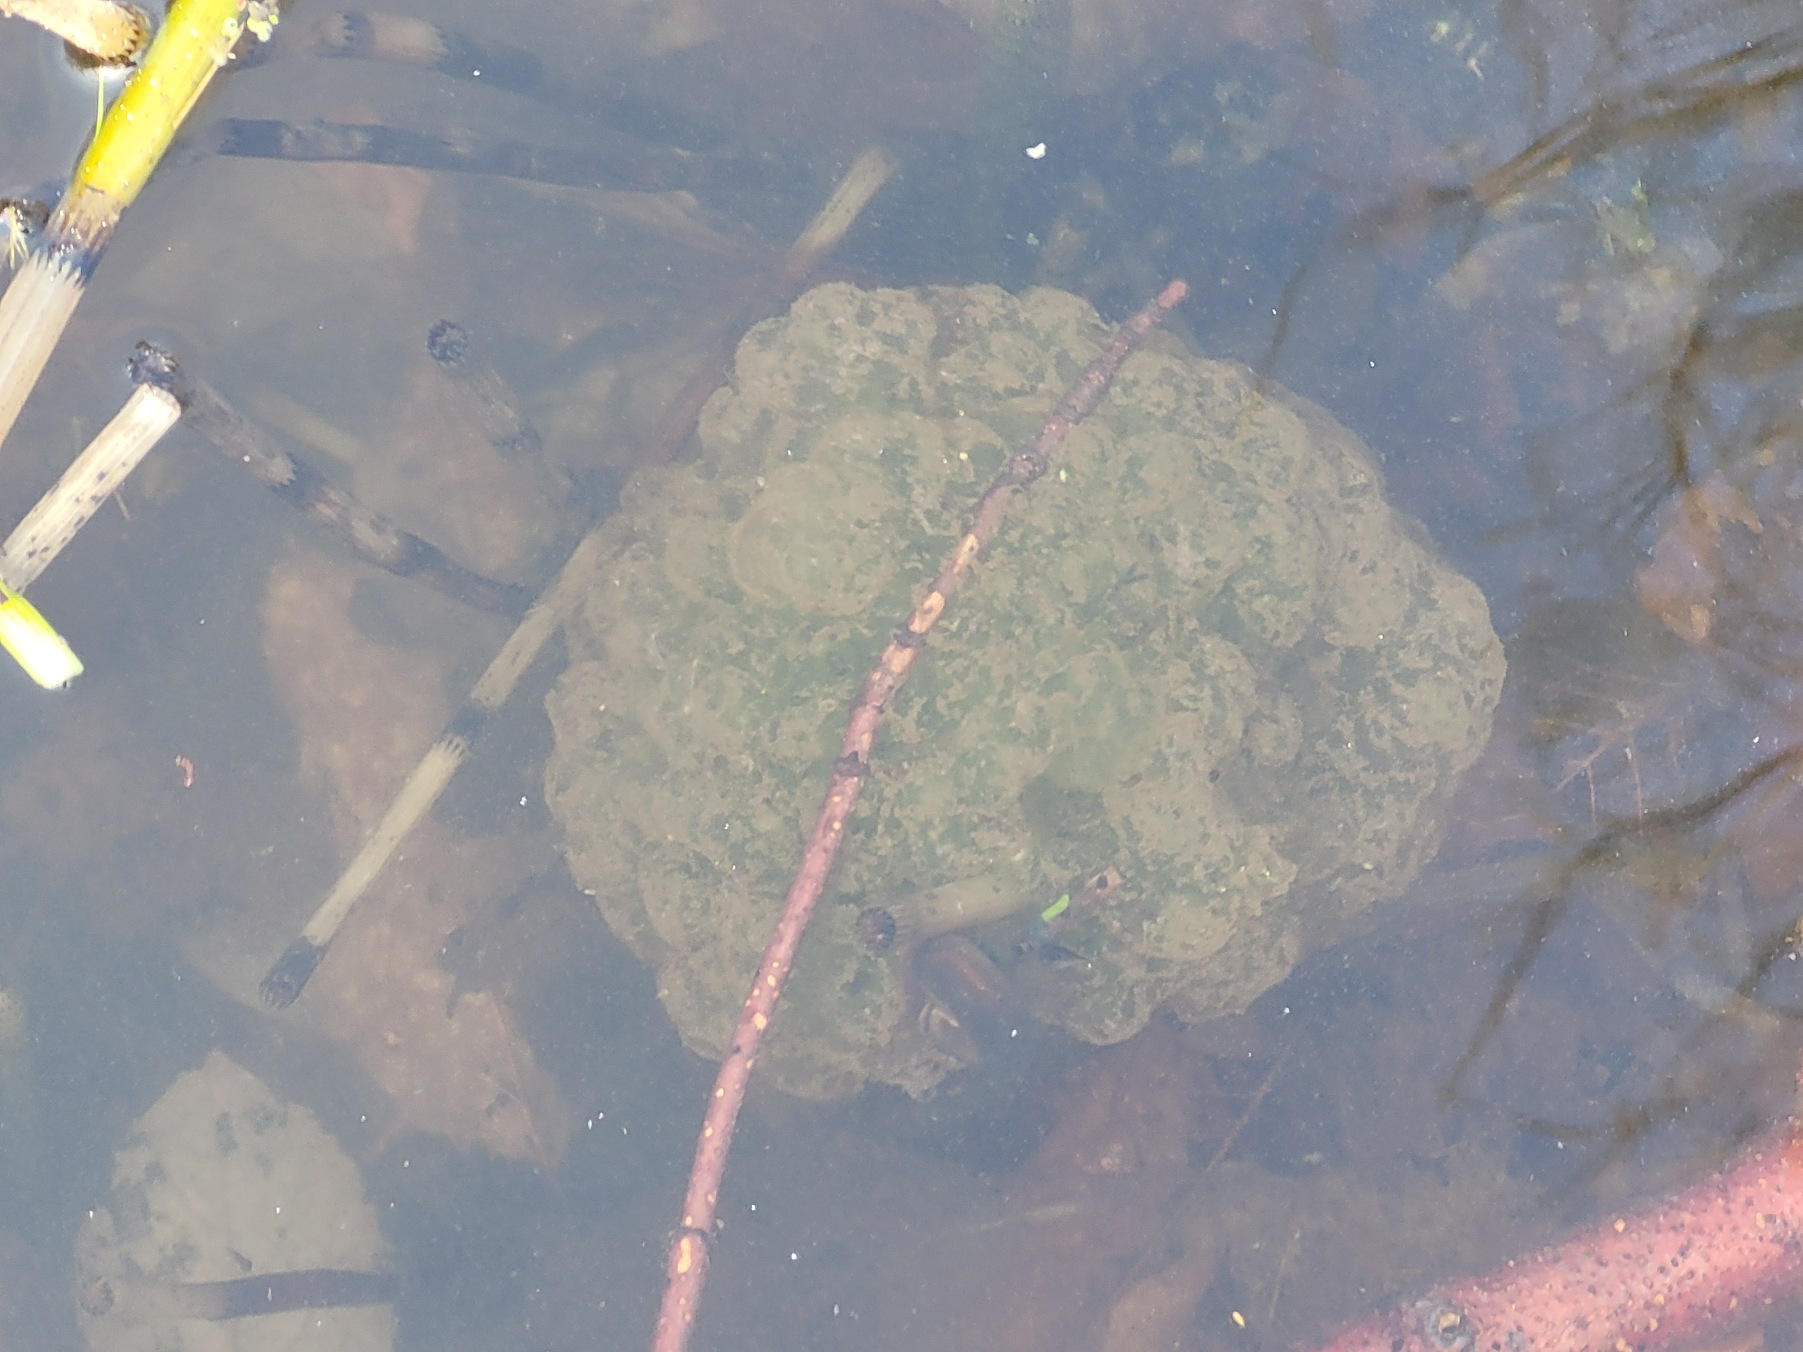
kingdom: Animalia
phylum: Chordata
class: Amphibia
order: Anura
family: Ranidae
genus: Rana
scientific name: Rana dalmatina
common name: Springfrø
